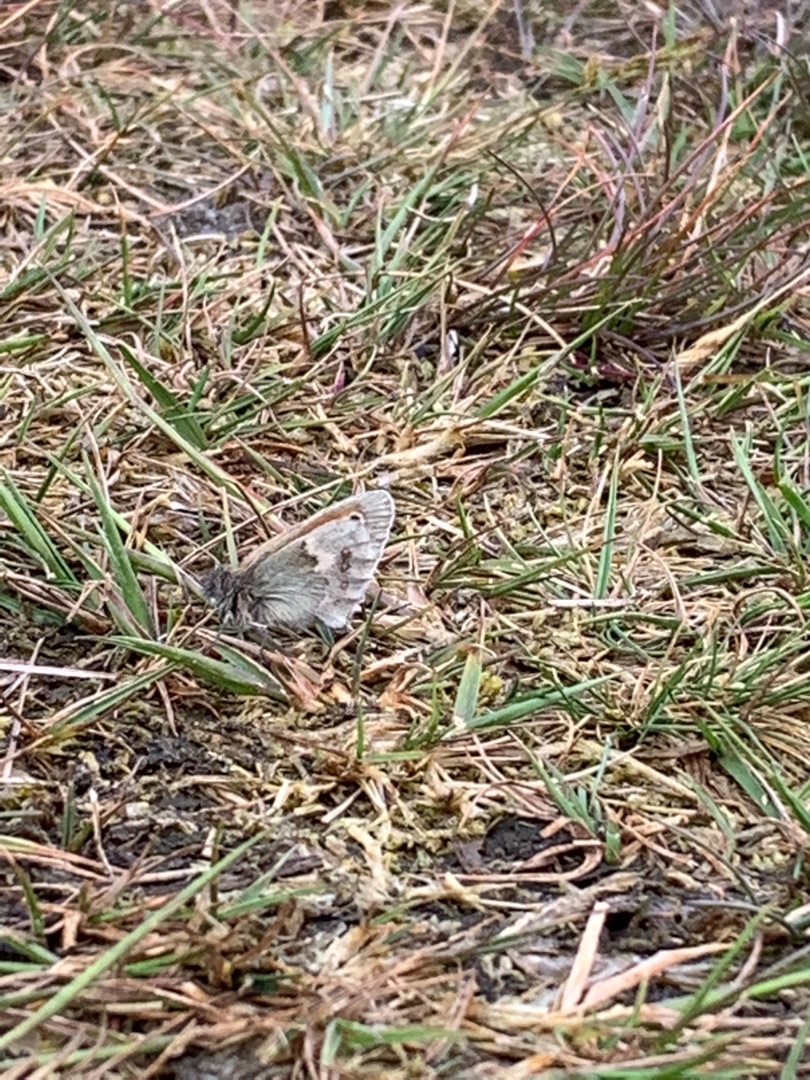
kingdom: Animalia
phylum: Arthropoda
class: Insecta
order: Lepidoptera
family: Nymphalidae
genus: Coenonympha
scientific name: Coenonympha pamphilus
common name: Okkergul randøje
